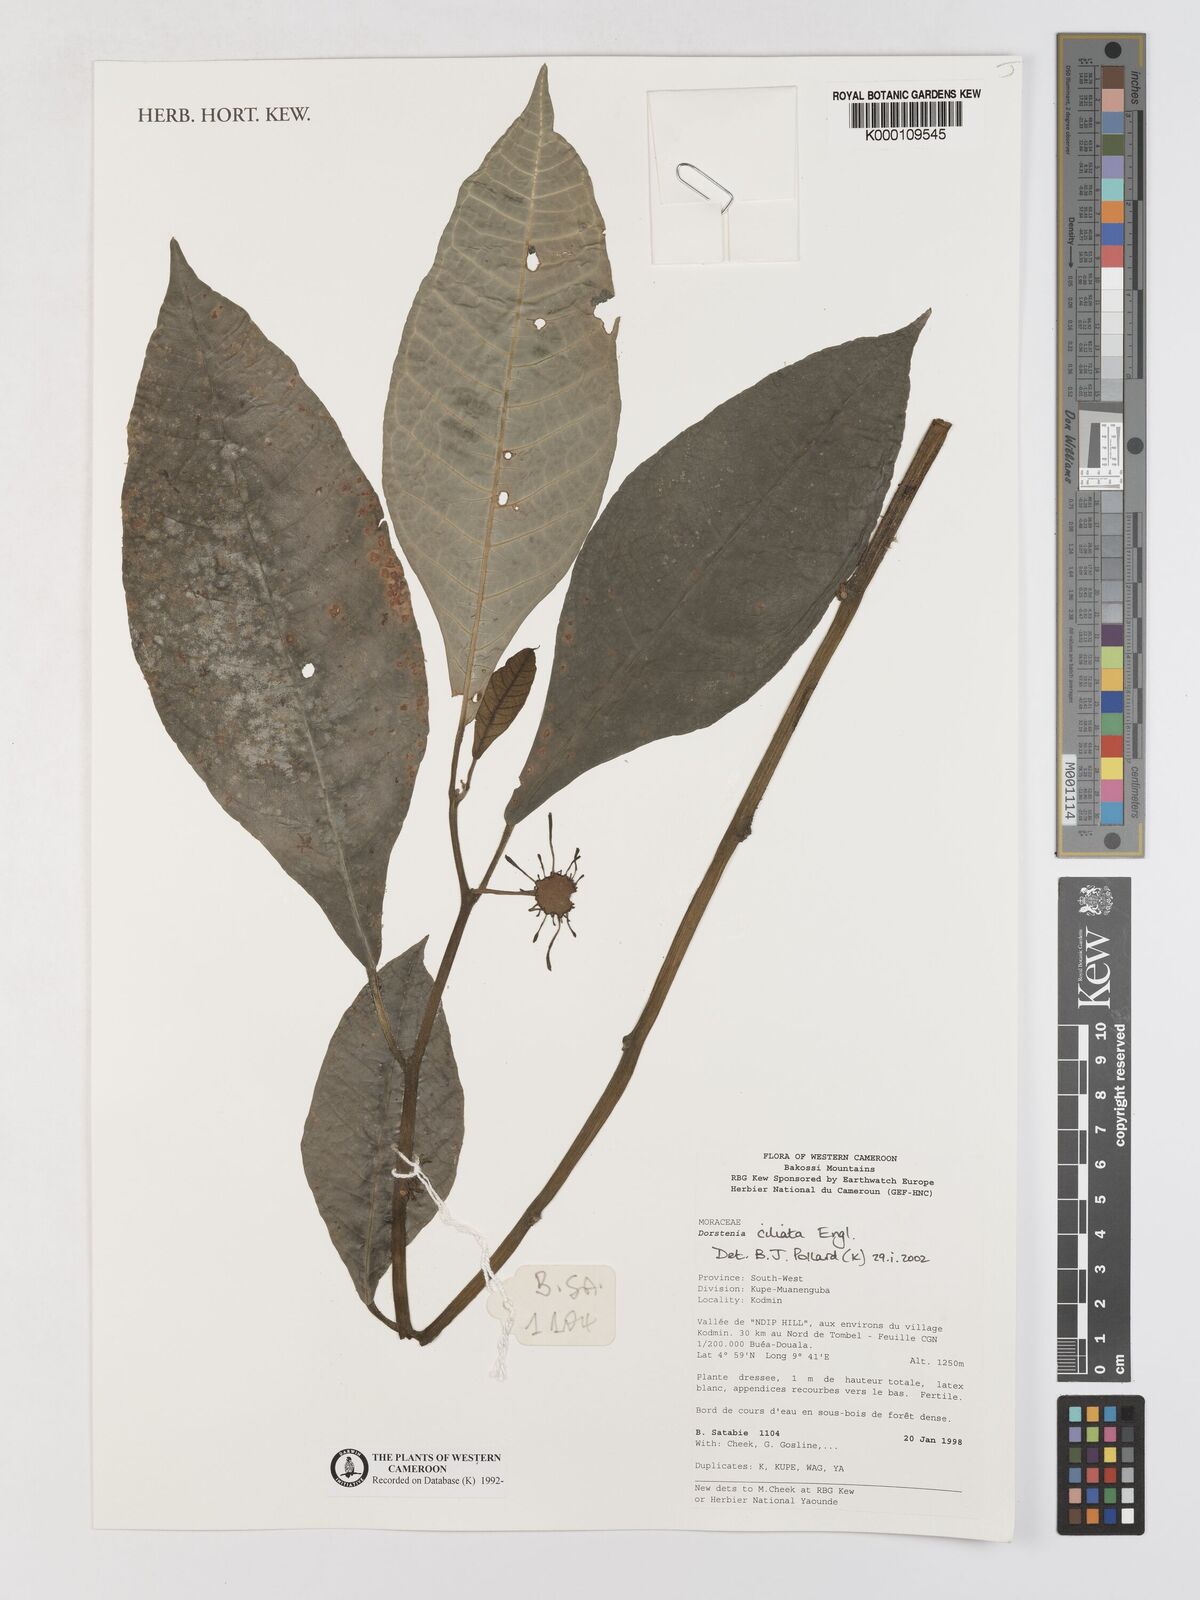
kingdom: Plantae
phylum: Tracheophyta
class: Magnoliopsida
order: Rosales
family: Moraceae
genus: Dorstenia
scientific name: Dorstenia ciliata
